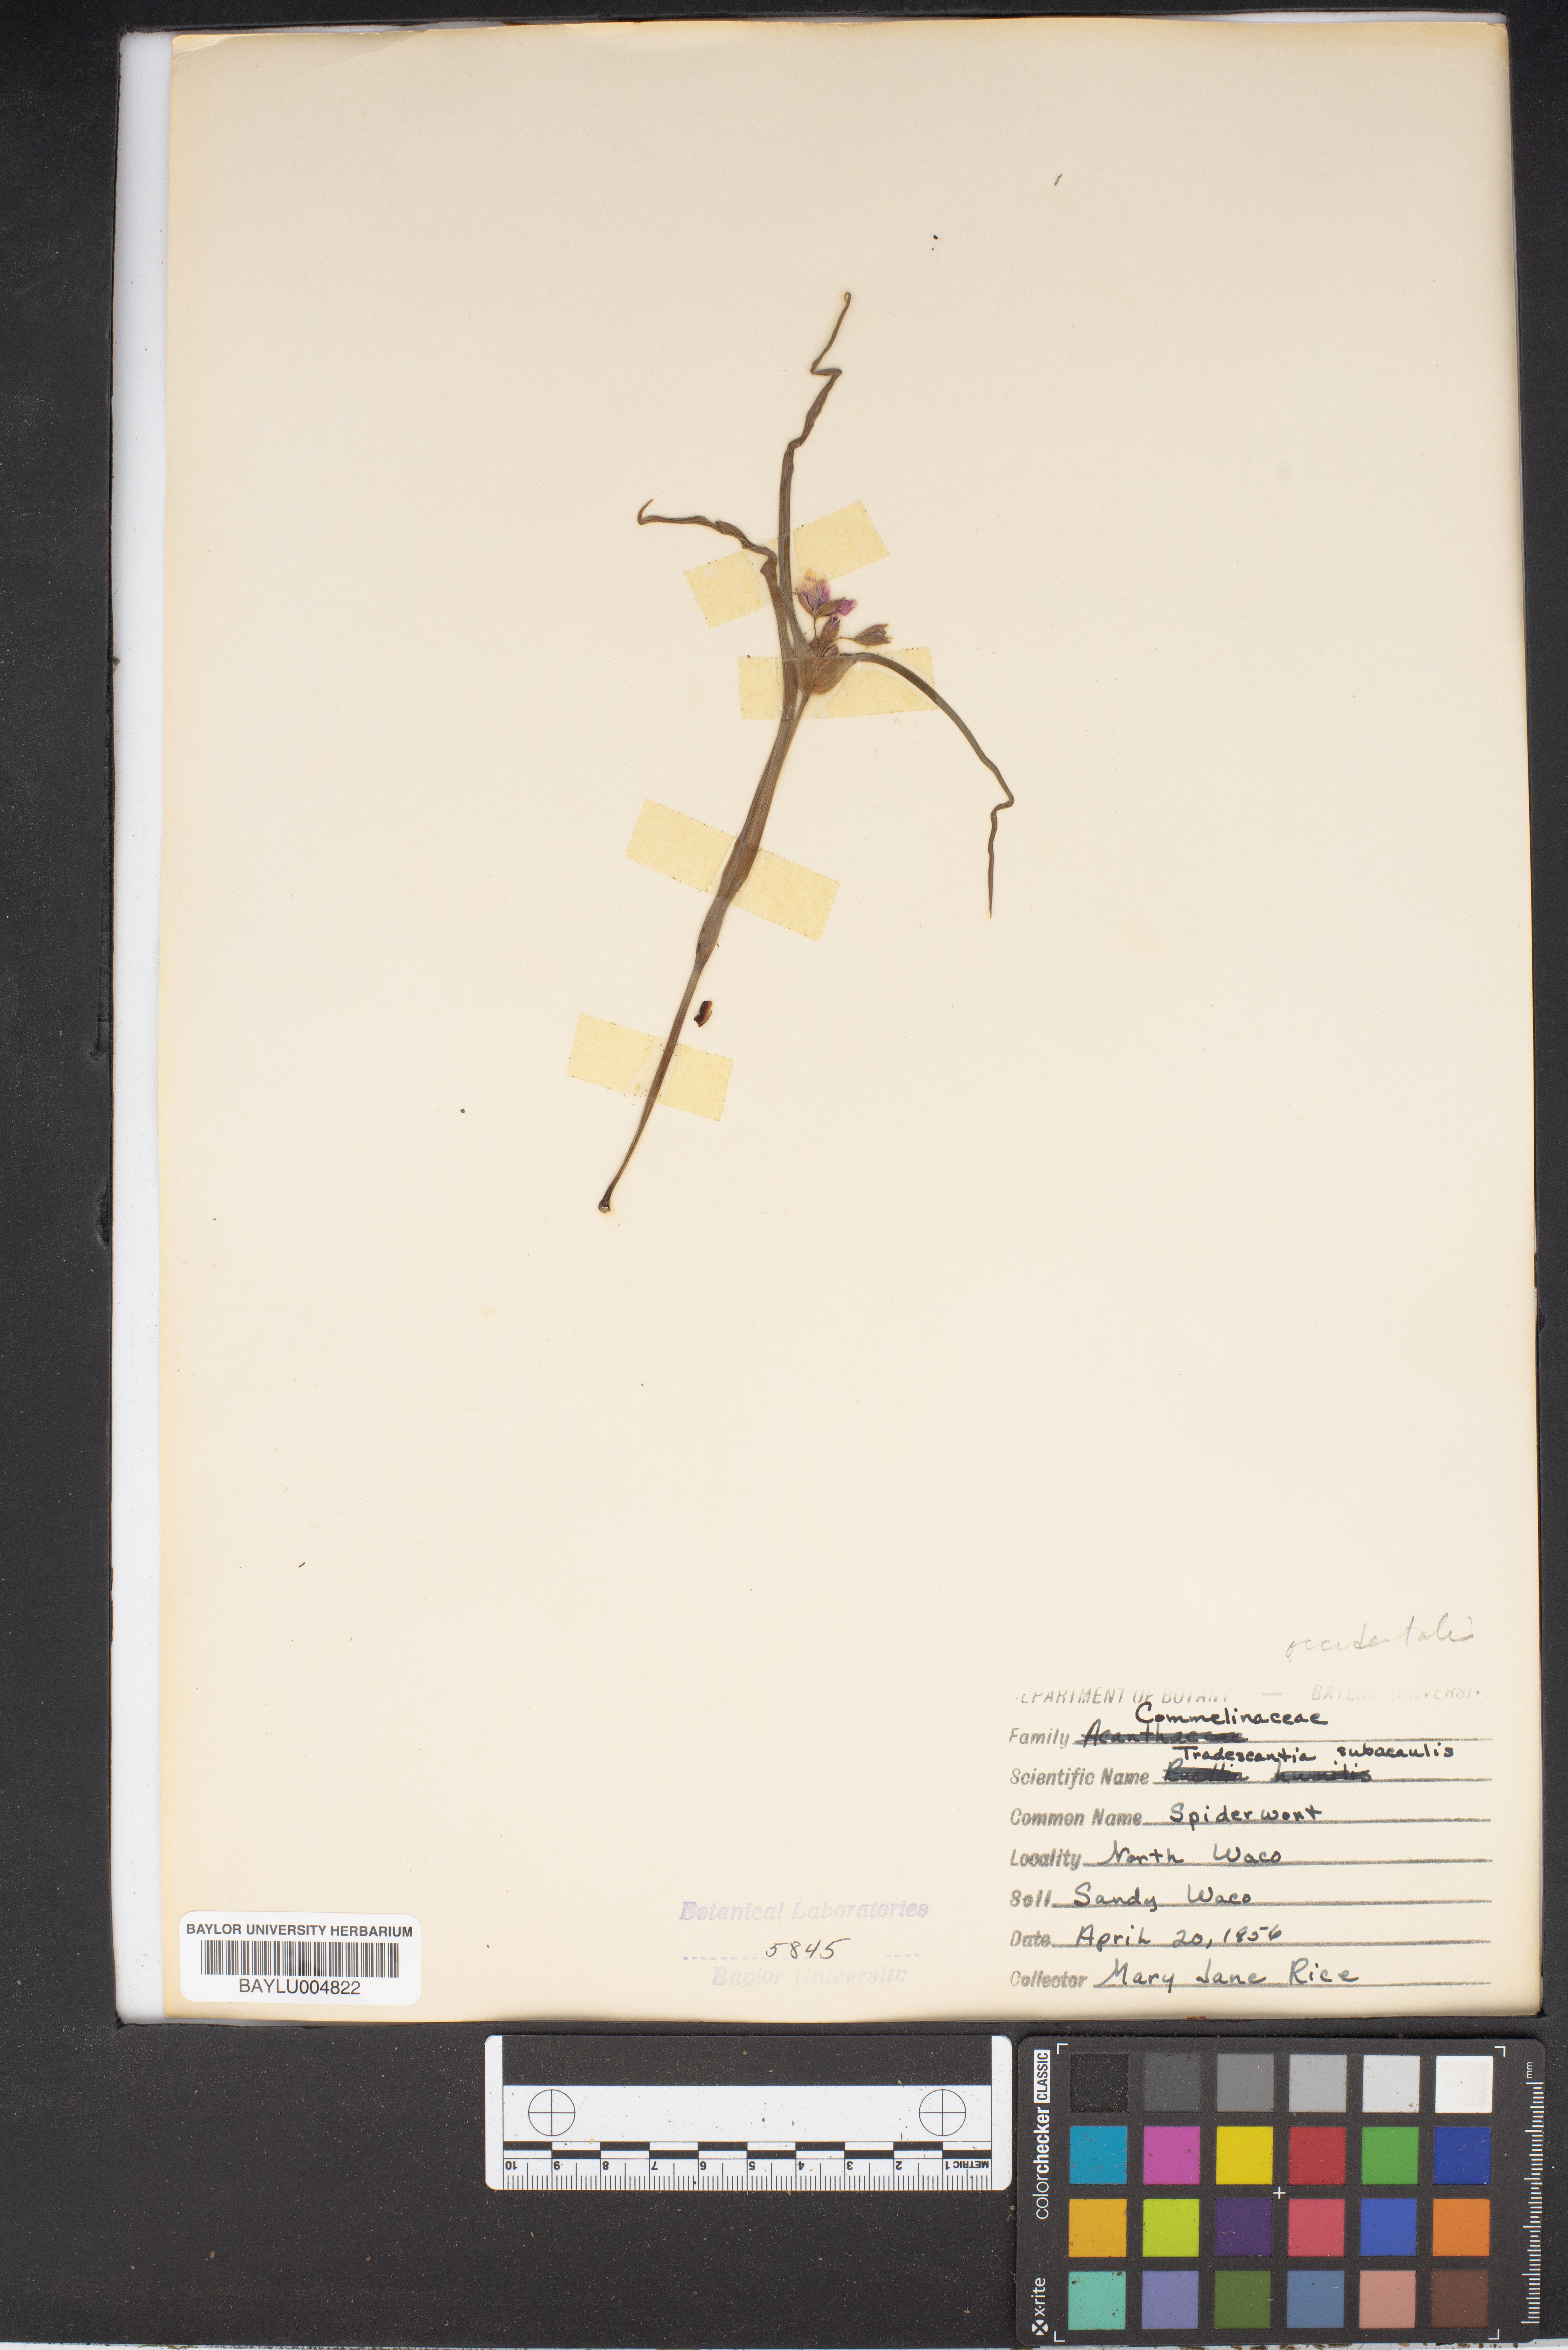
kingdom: Plantae
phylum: Tracheophyta
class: Liliopsida
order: Commelinales
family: Commelinaceae
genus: Tradescantia
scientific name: Tradescantia subacaulis
